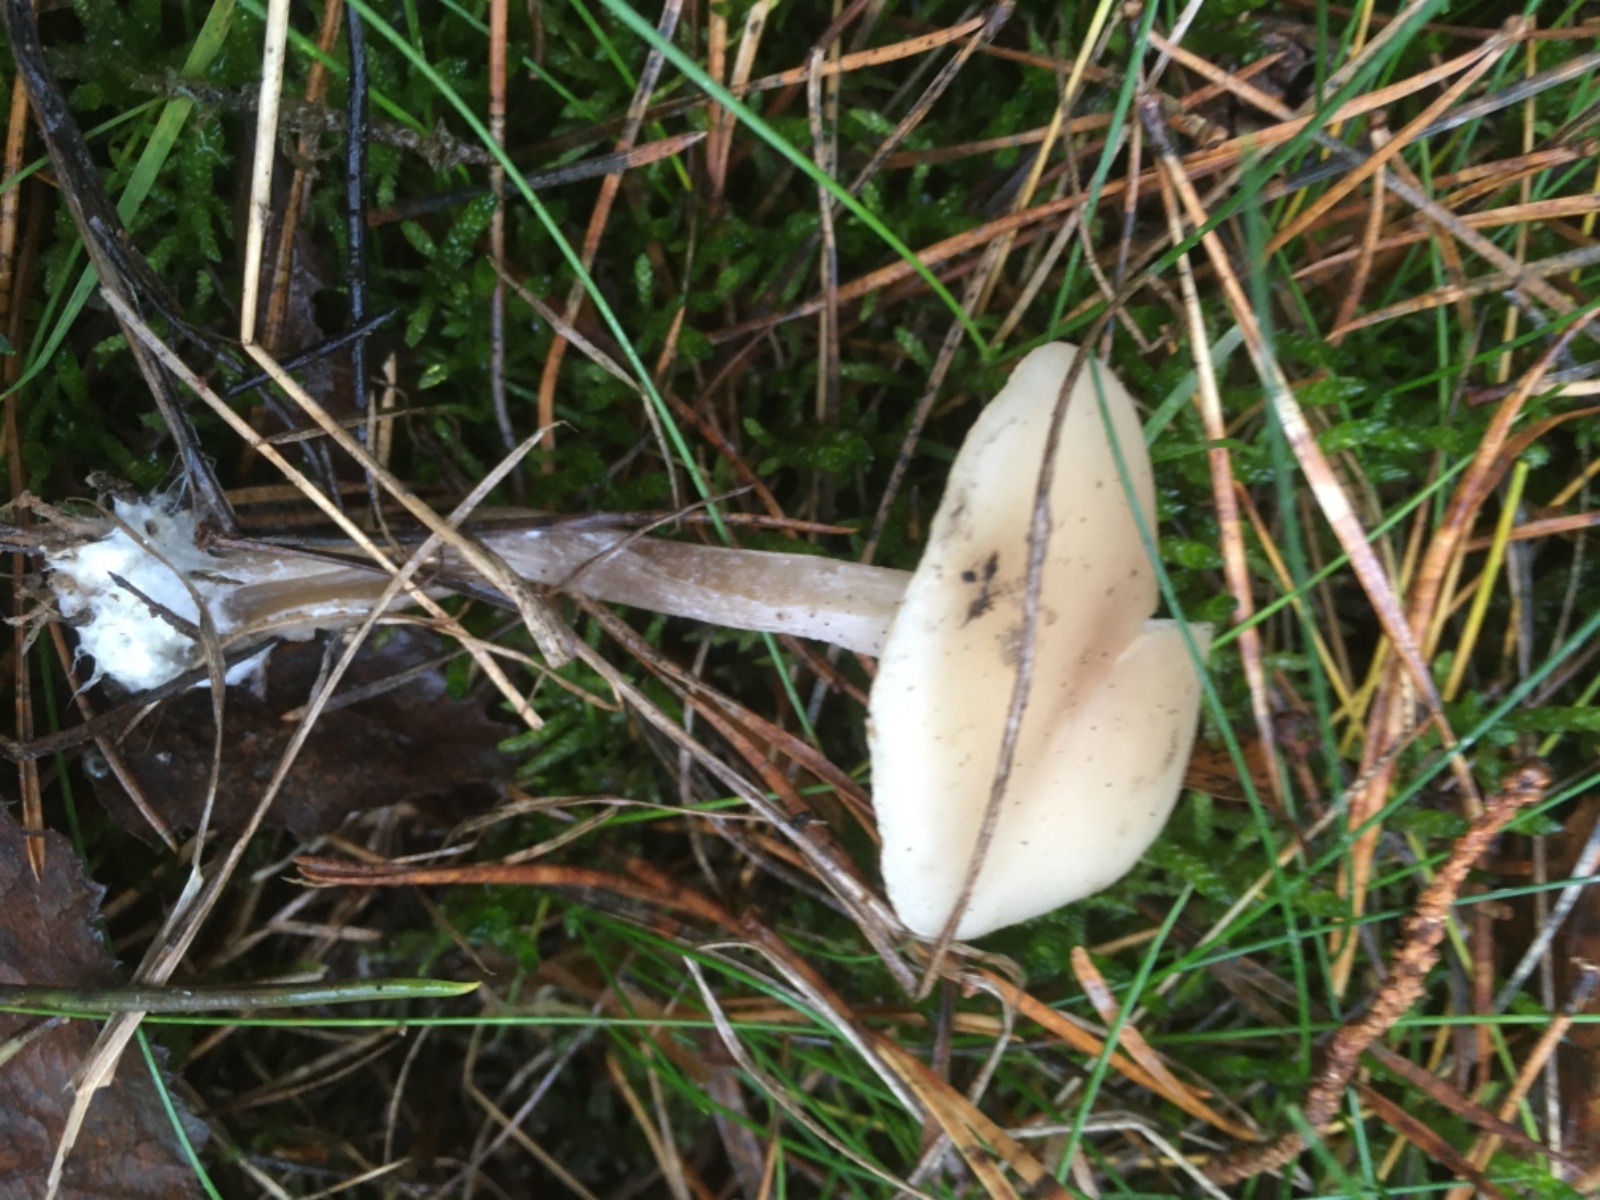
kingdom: Fungi
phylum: Basidiomycota
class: Agaricomycetes
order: Agaricales
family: Tricholomataceae
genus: Clitocybe
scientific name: Clitocybe fragrans
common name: vellugtende tragthat
